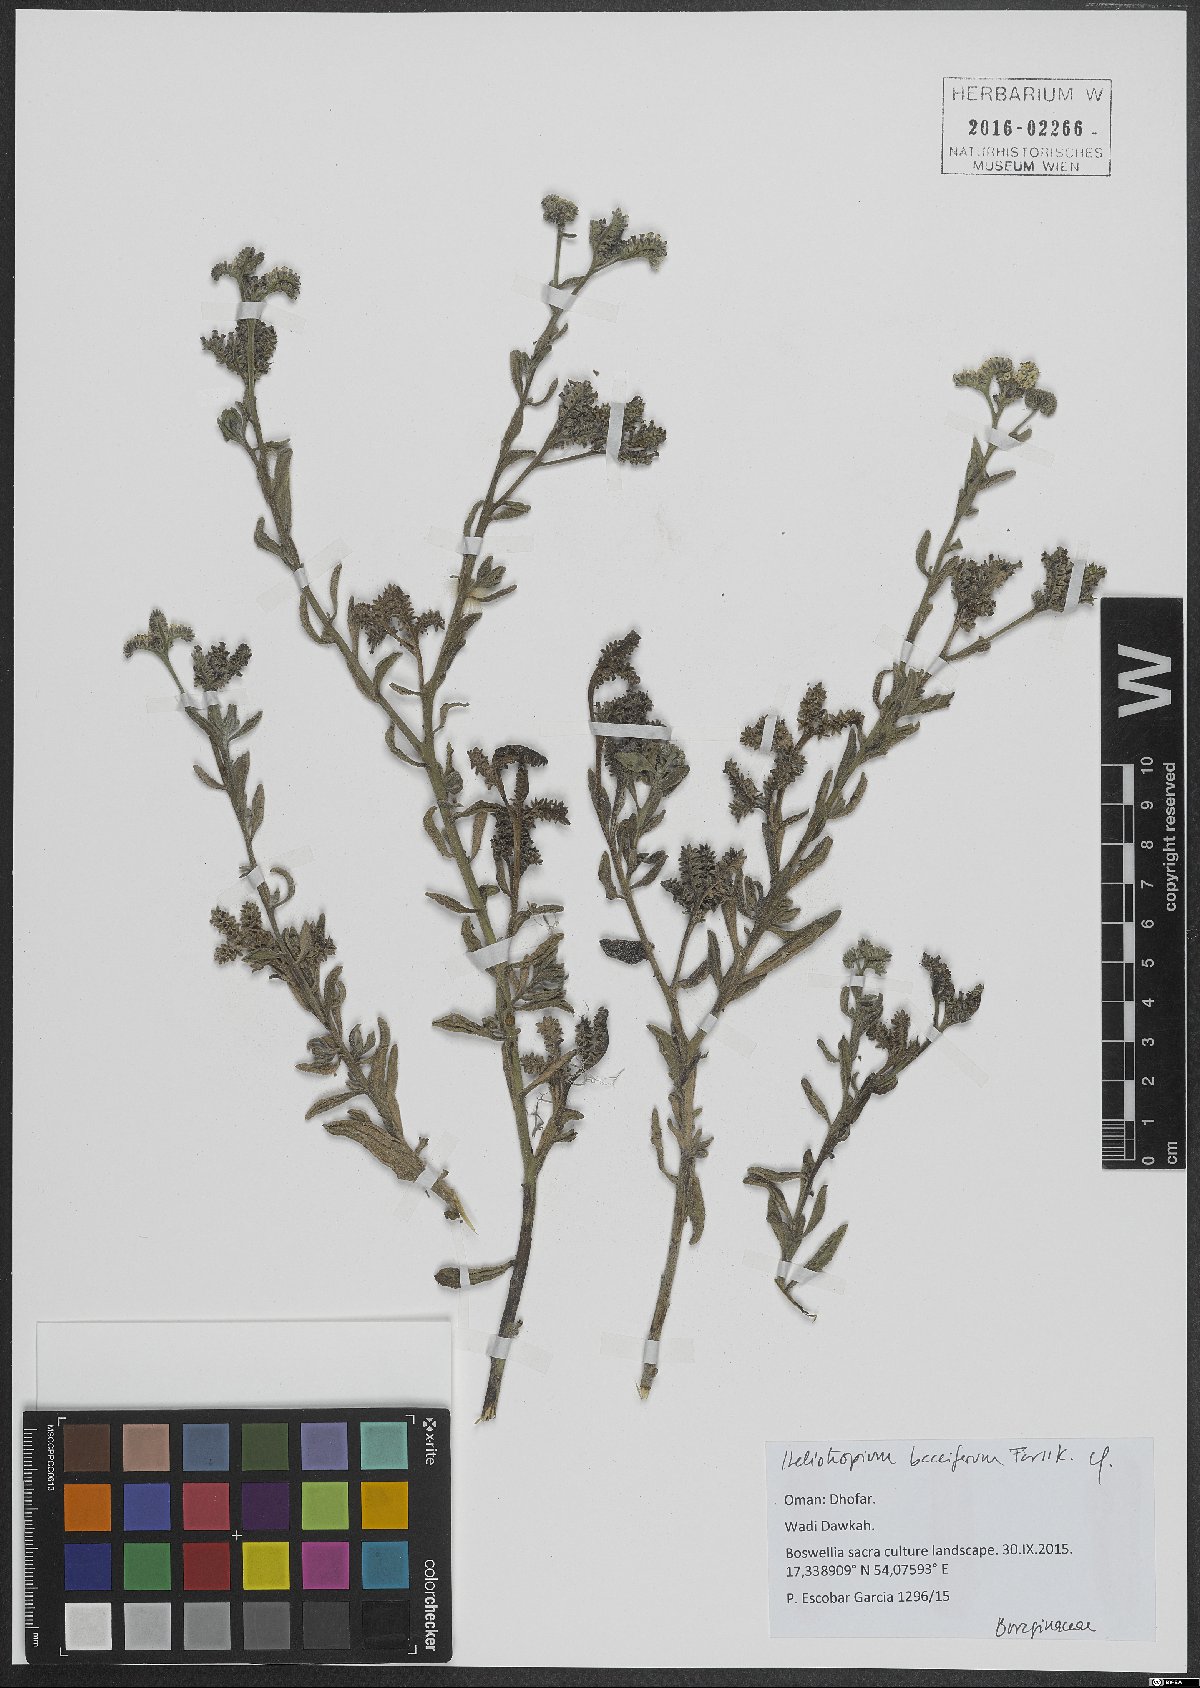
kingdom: Plantae
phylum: Tracheophyta
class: Magnoliopsida
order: Boraginales
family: Heliotropiaceae
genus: Heliotropium
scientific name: Heliotropium bacciferum
